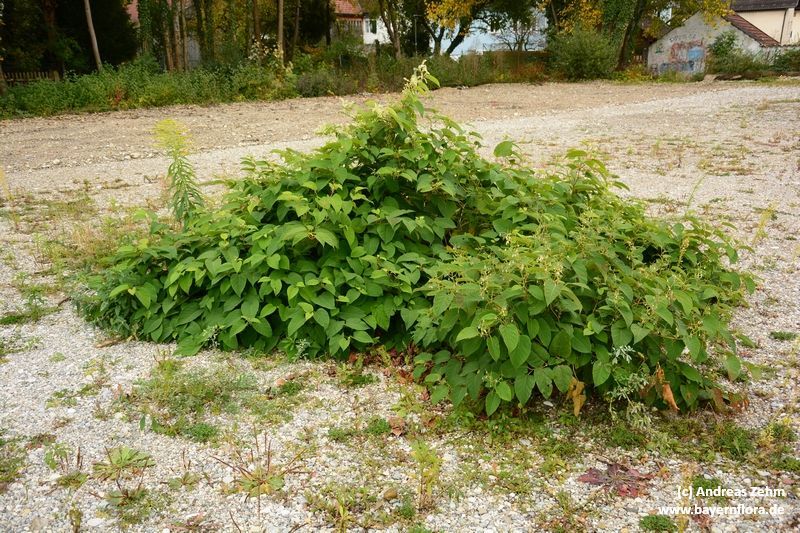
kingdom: Plantae
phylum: Tracheophyta
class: Magnoliopsida
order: Caryophyllales
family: Polygonaceae
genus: Reynoutria
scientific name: Reynoutria japonica
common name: Japanese knotweed
